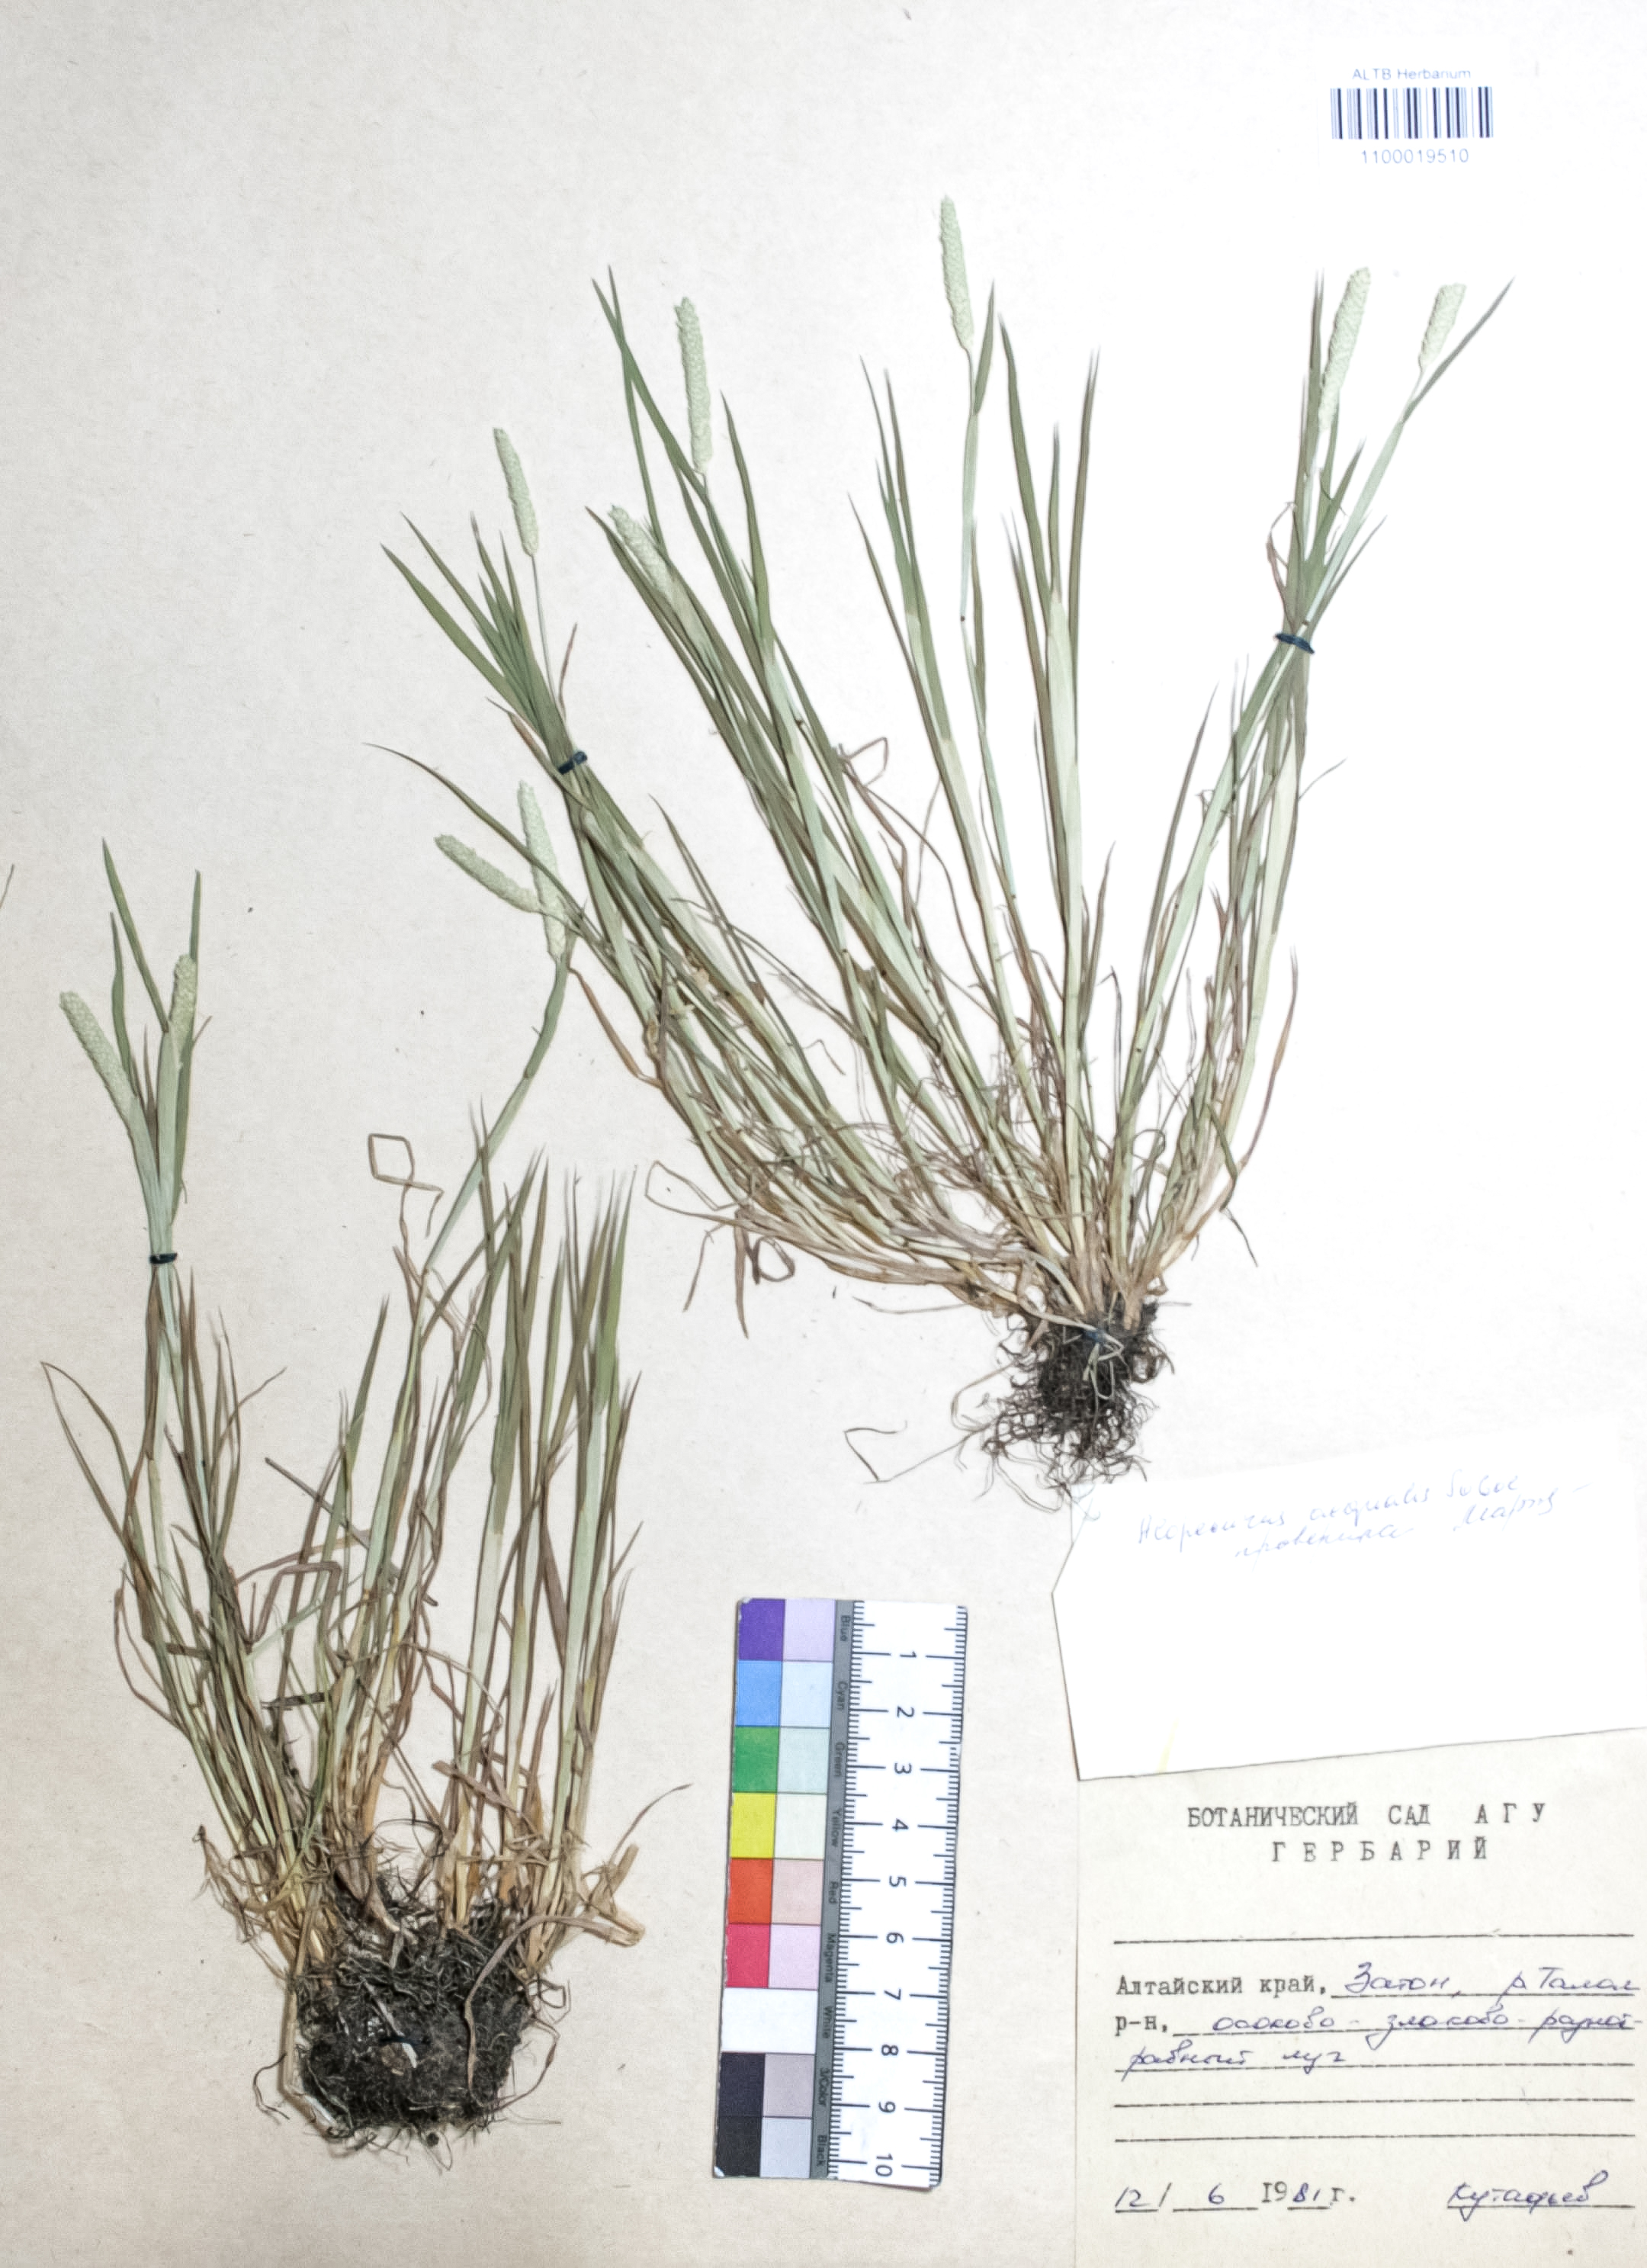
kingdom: Plantae
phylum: Tracheophyta
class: Liliopsida
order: Poales
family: Poaceae
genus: Alopecurus
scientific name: Alopecurus aequalis
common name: Orange foxtail
